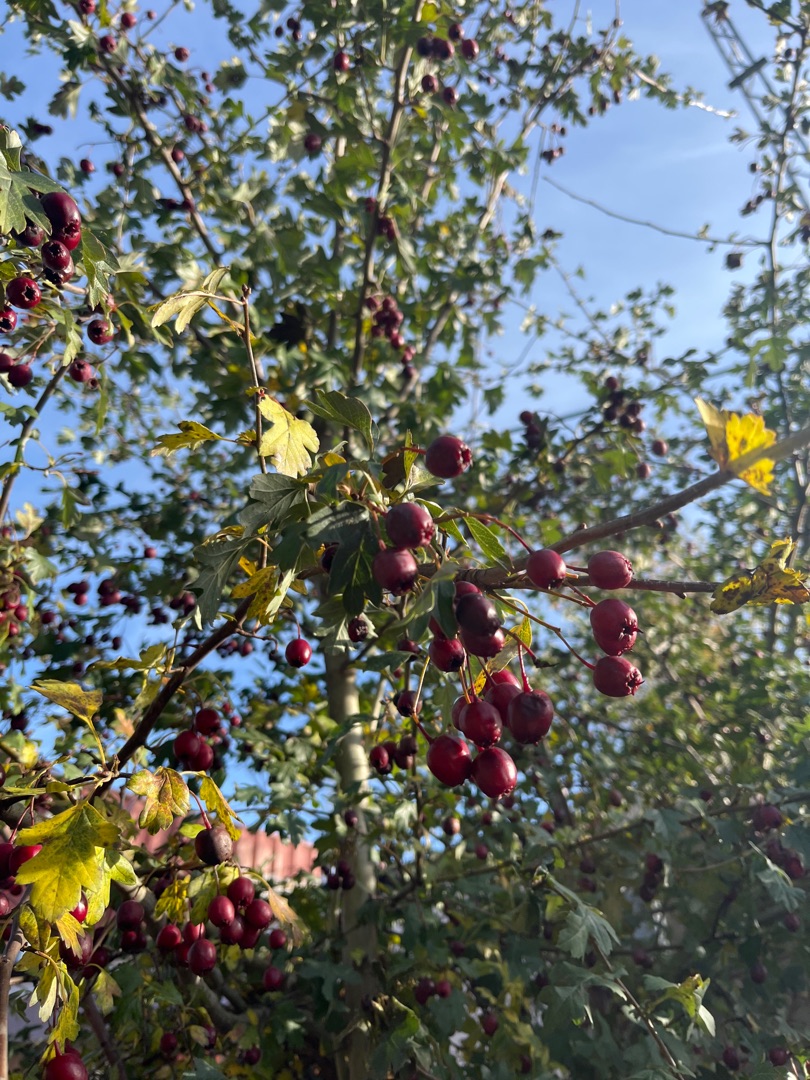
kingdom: Plantae
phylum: Tracheophyta
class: Magnoliopsida
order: Rosales
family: Rosaceae
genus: Crataegus
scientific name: Crataegus monogyna
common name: Engriflet hvidtjørn
